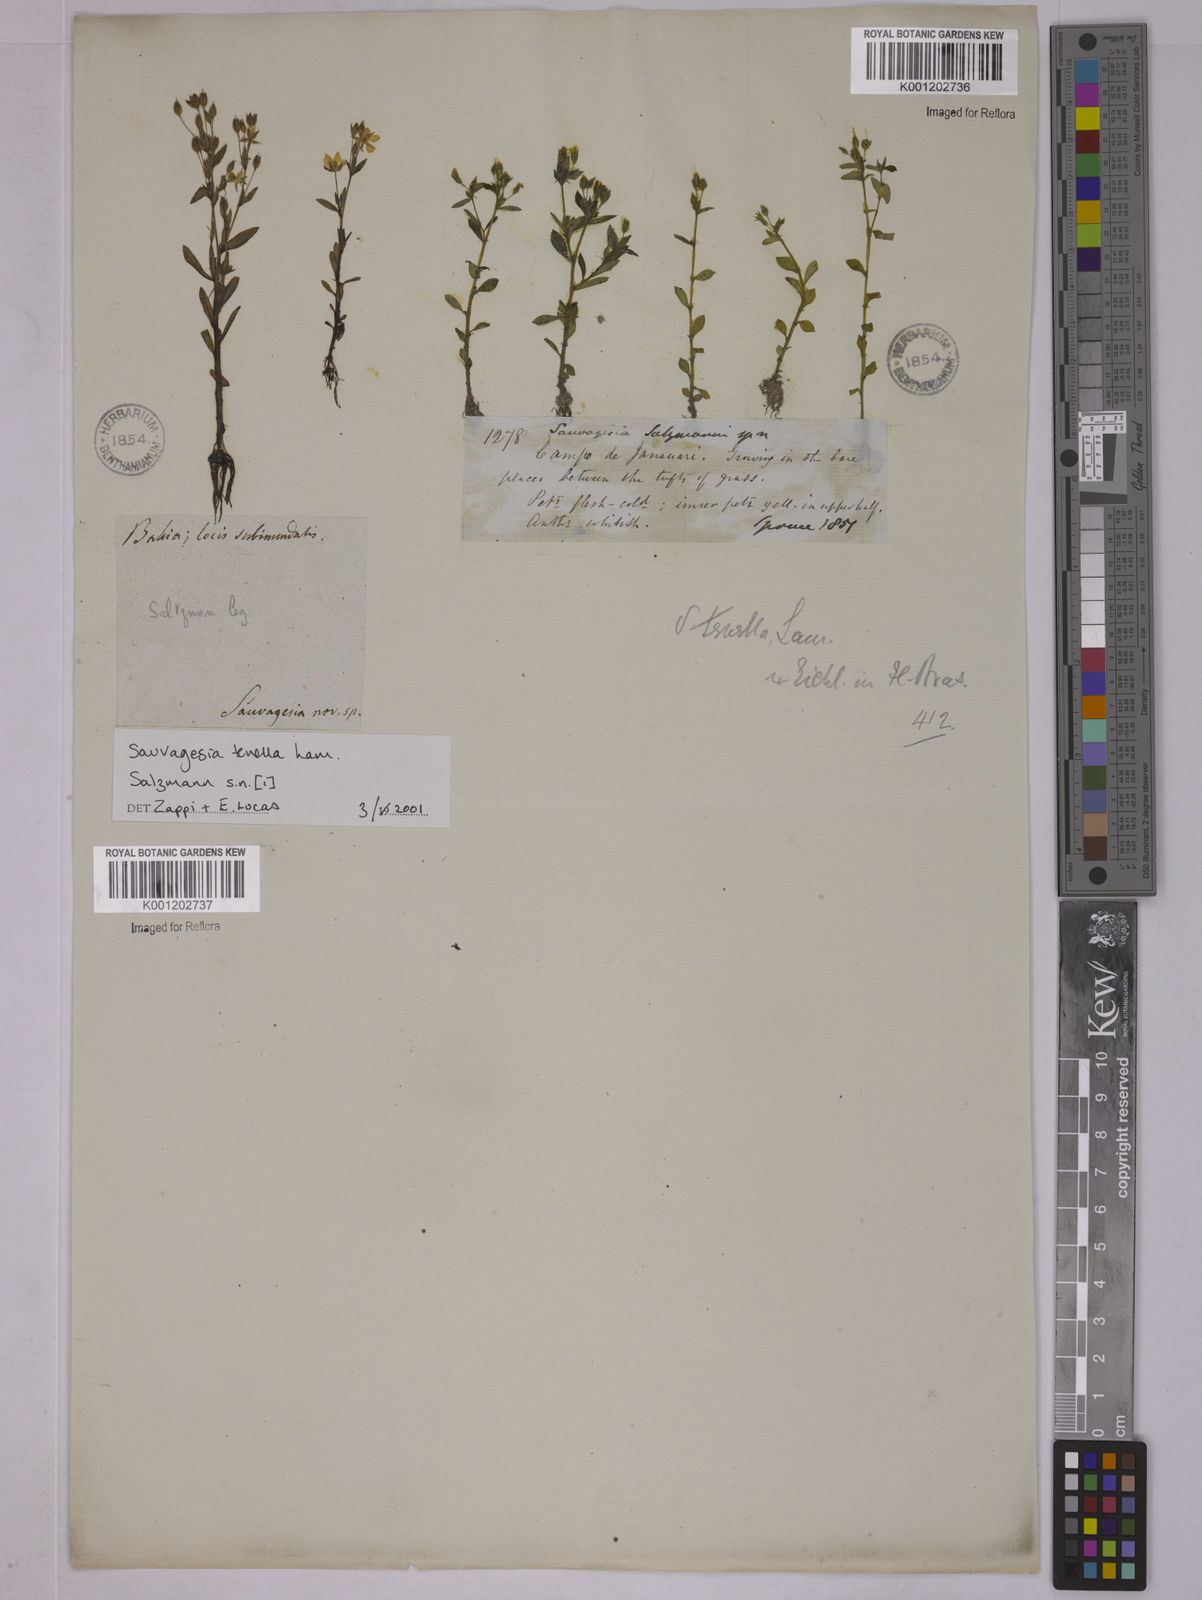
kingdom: Plantae
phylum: Tracheophyta
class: Magnoliopsida
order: Malpighiales
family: Ochnaceae
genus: Sauvagesia
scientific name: Sauvagesia tenella
